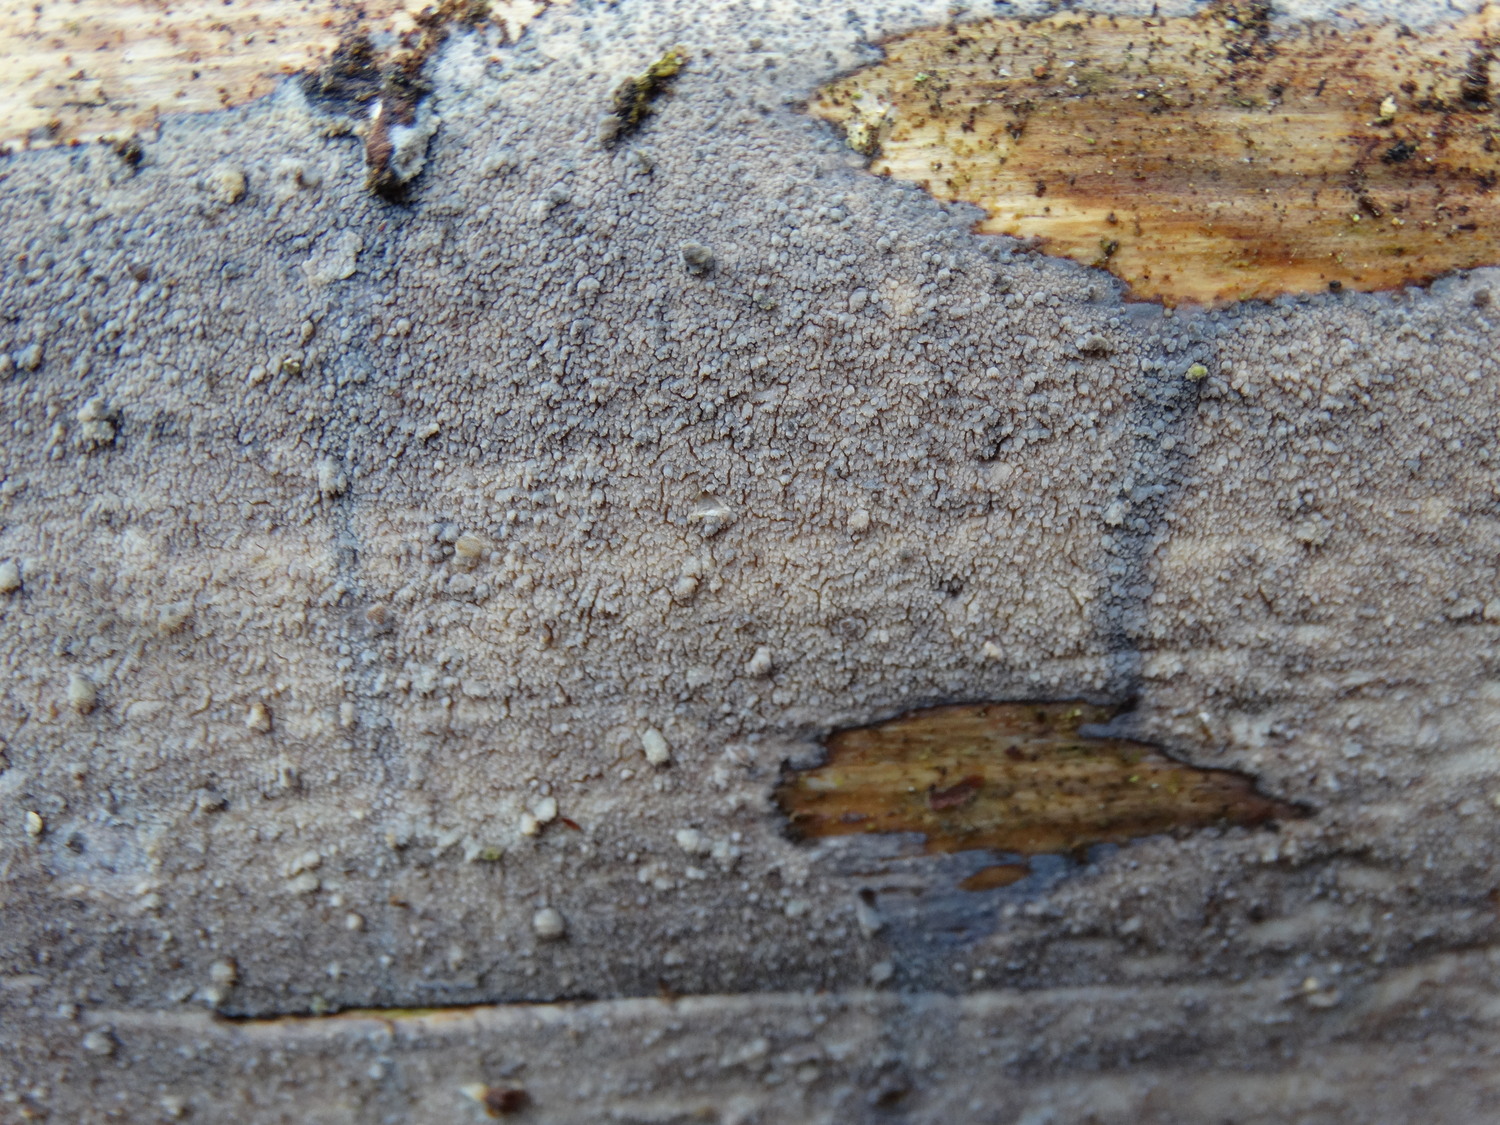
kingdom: Fungi
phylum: Basidiomycota
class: Agaricomycetes
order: Hymenochaetales
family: Rickenellaceae
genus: Resinicium
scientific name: Resinicium bicolor
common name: almindelig vokstand
